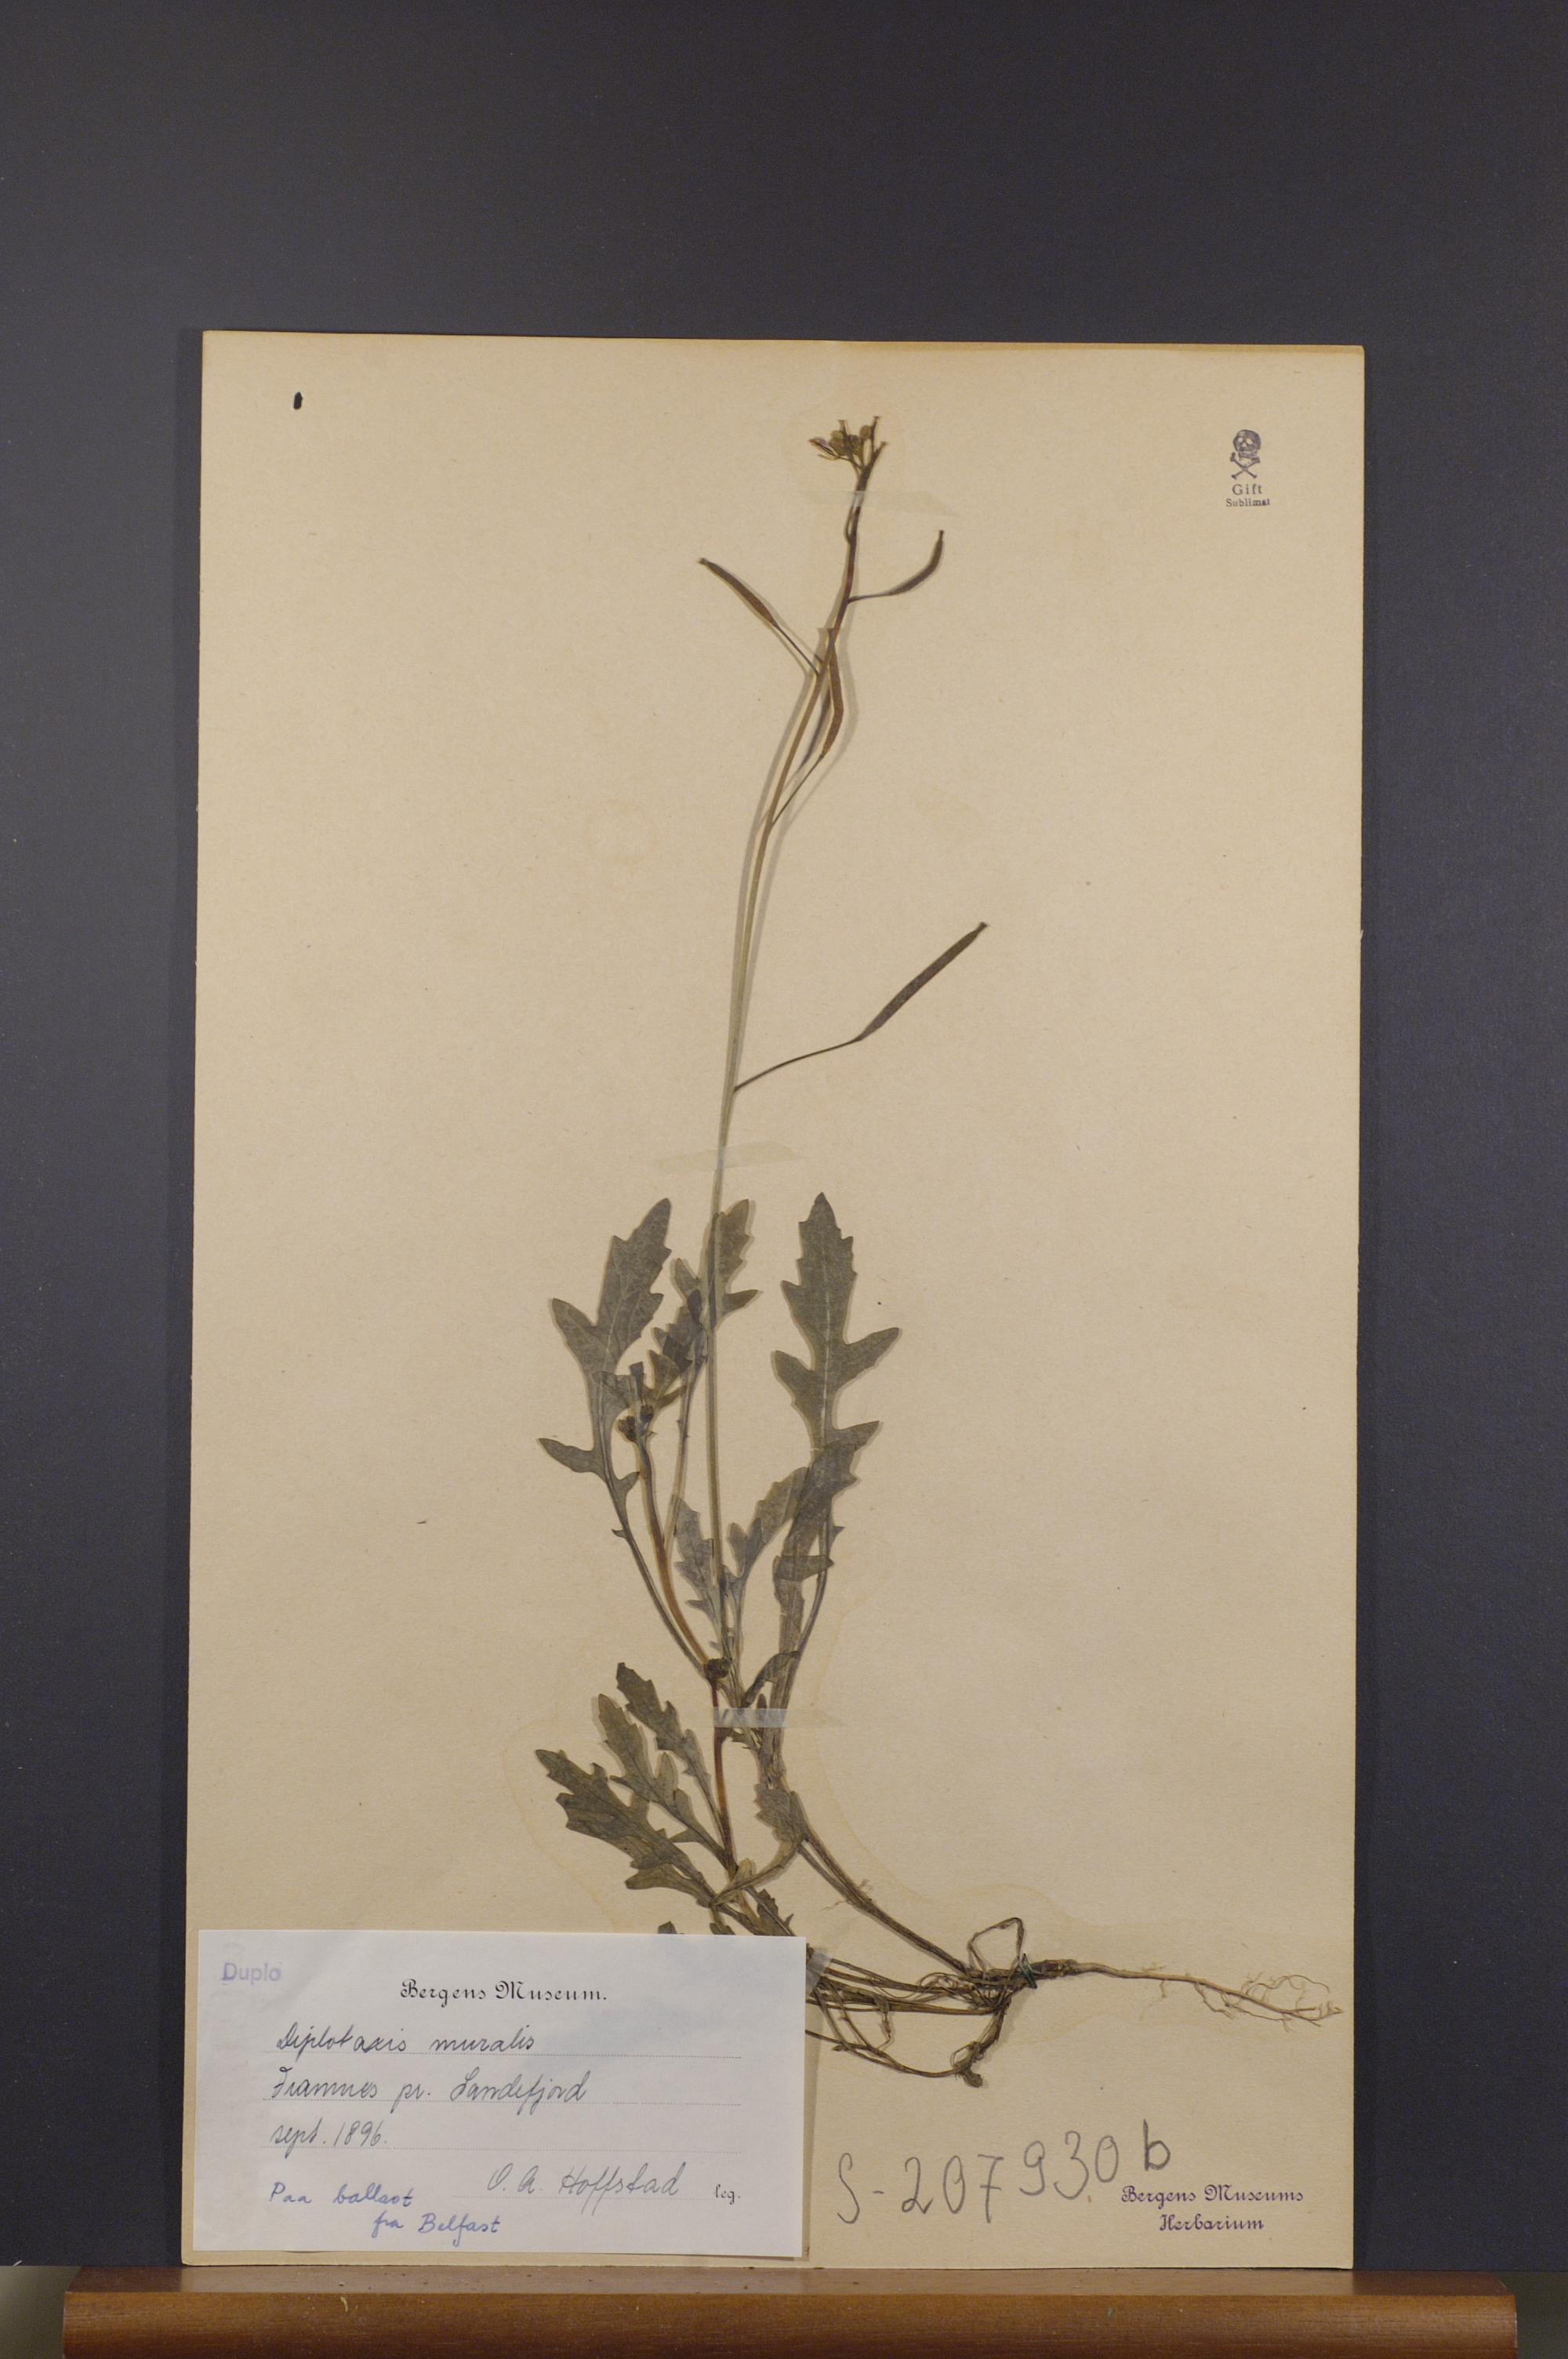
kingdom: Plantae
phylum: Tracheophyta
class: Magnoliopsida
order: Brassicales
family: Brassicaceae
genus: Diplotaxis
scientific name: Diplotaxis muralis
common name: Annual wall-rocket
